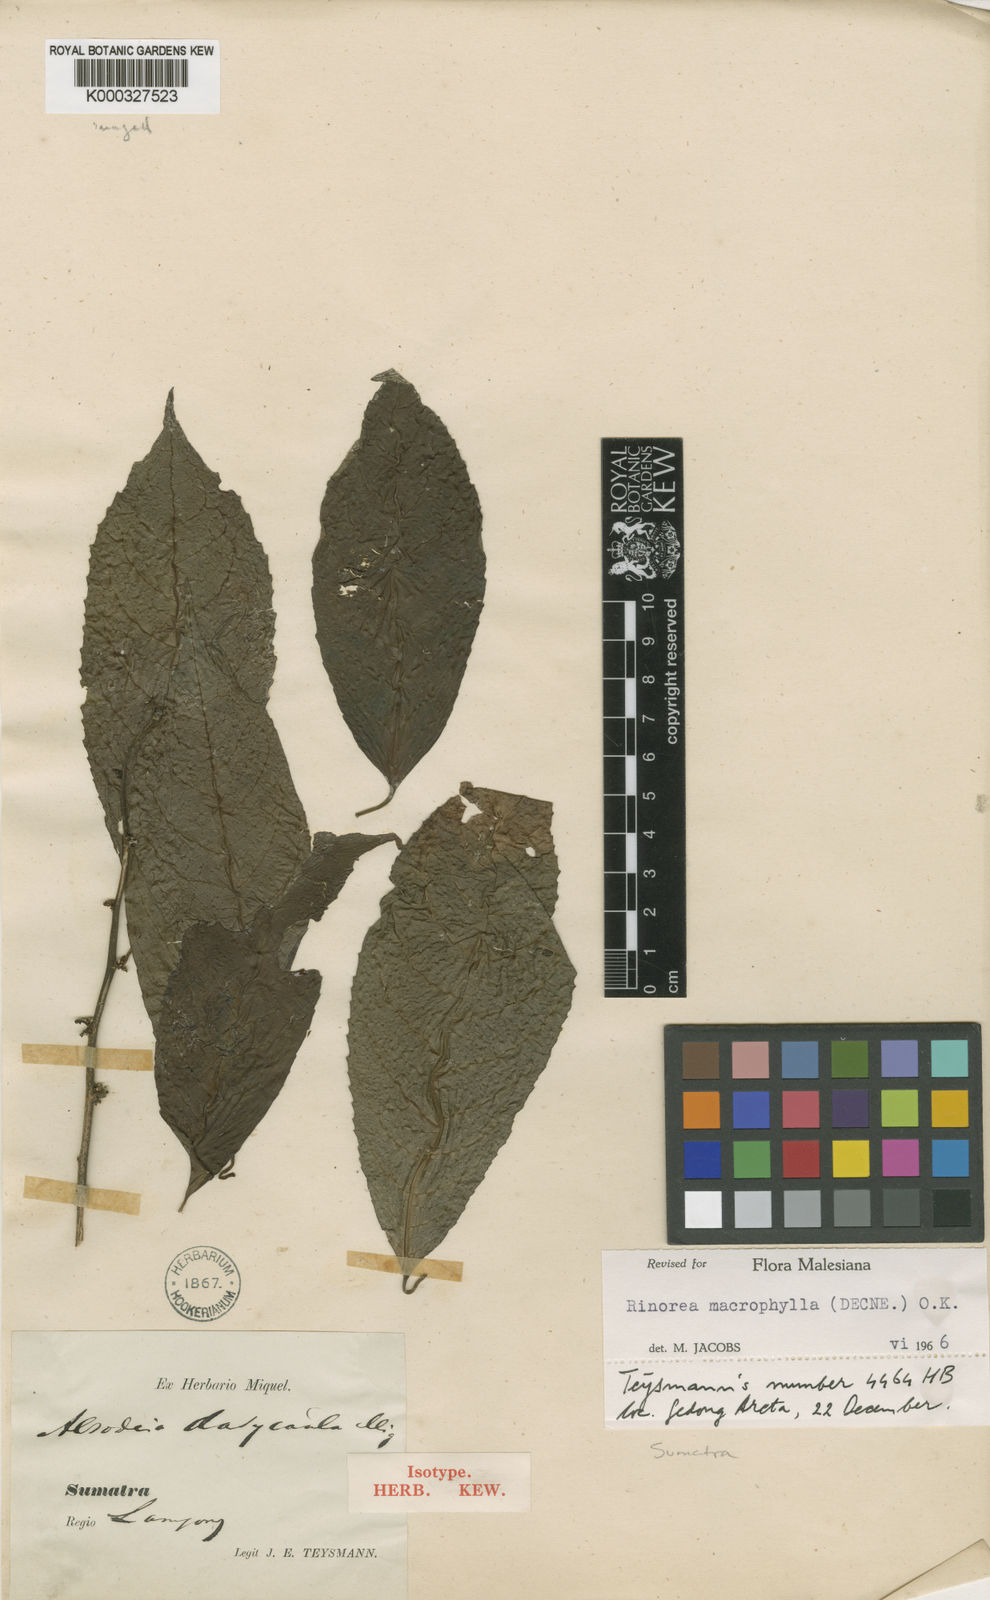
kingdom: Plantae
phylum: Tracheophyta
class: Magnoliopsida
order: Malpighiales
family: Violaceae
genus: Rinorea
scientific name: Rinorea macrophylla
